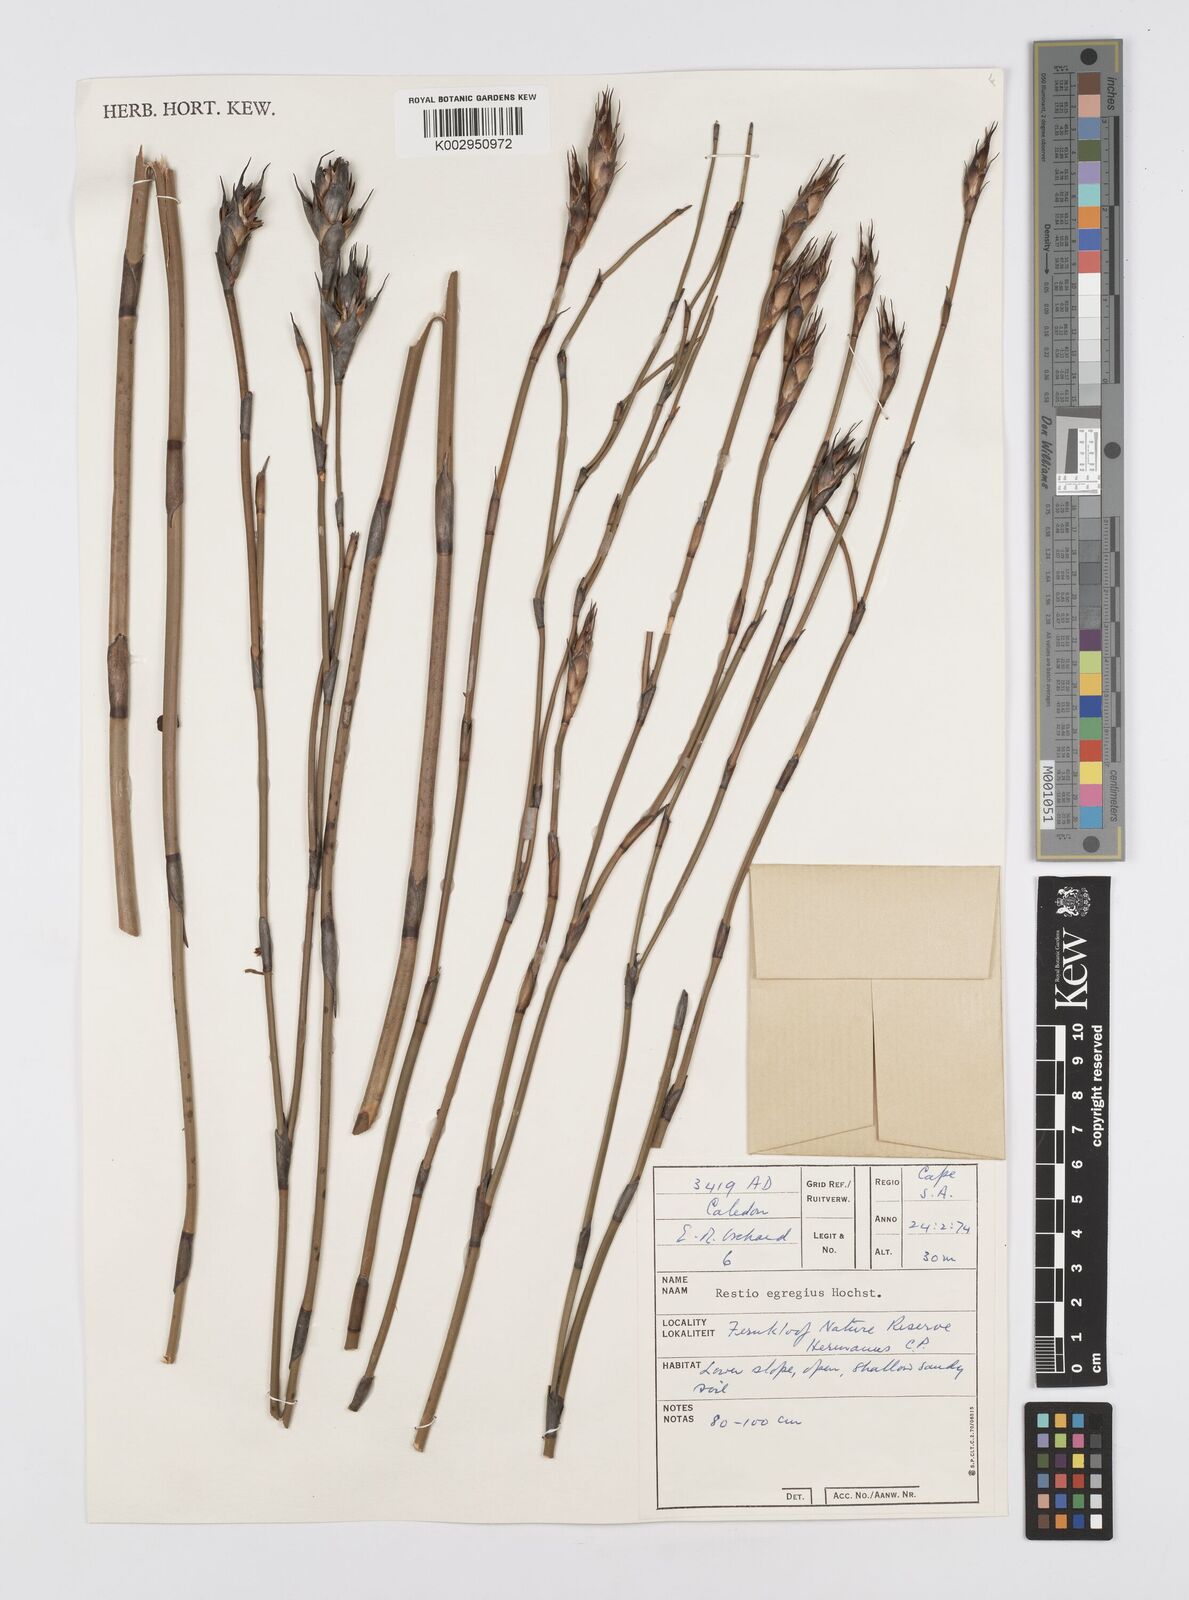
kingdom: Plantae
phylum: Tracheophyta
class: Liliopsida
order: Poales
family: Restionaceae
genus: Restio
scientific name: Restio egregius
